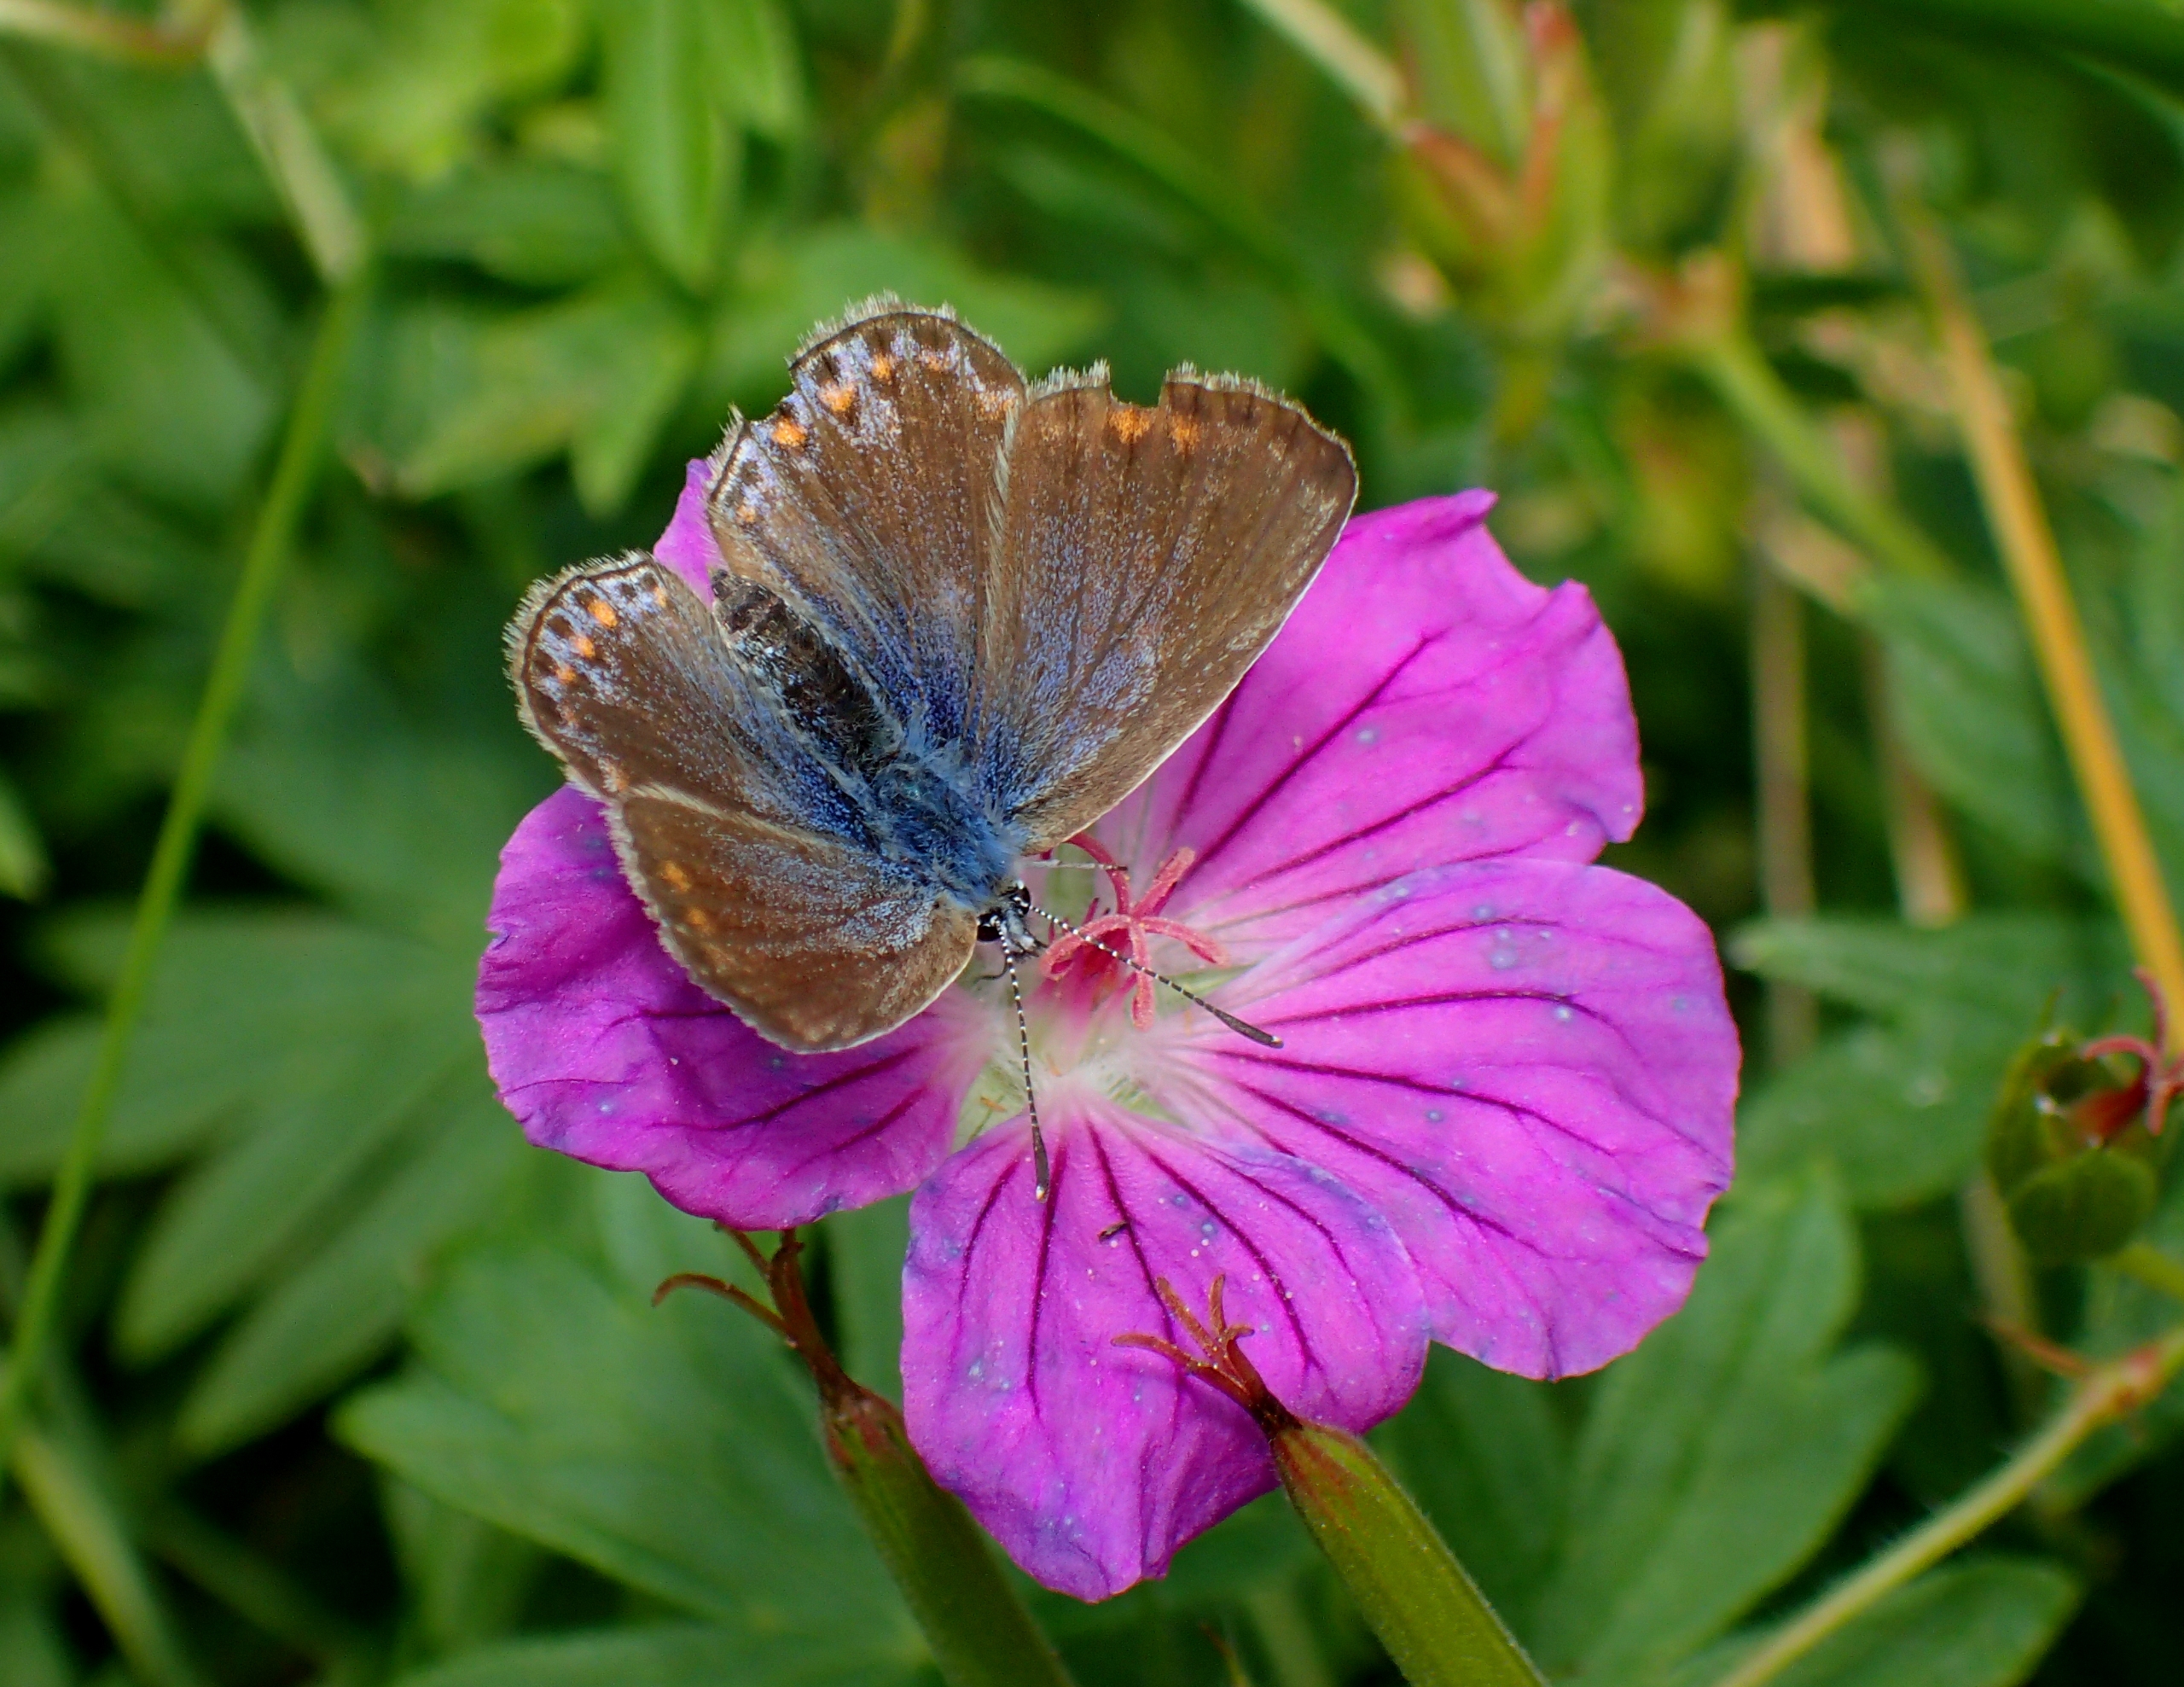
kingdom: Animalia
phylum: Arthropoda
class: Insecta
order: Lepidoptera
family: Lycaenidae
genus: Polyommatus
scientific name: Polyommatus icarus
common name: Almindelig blåfugl
